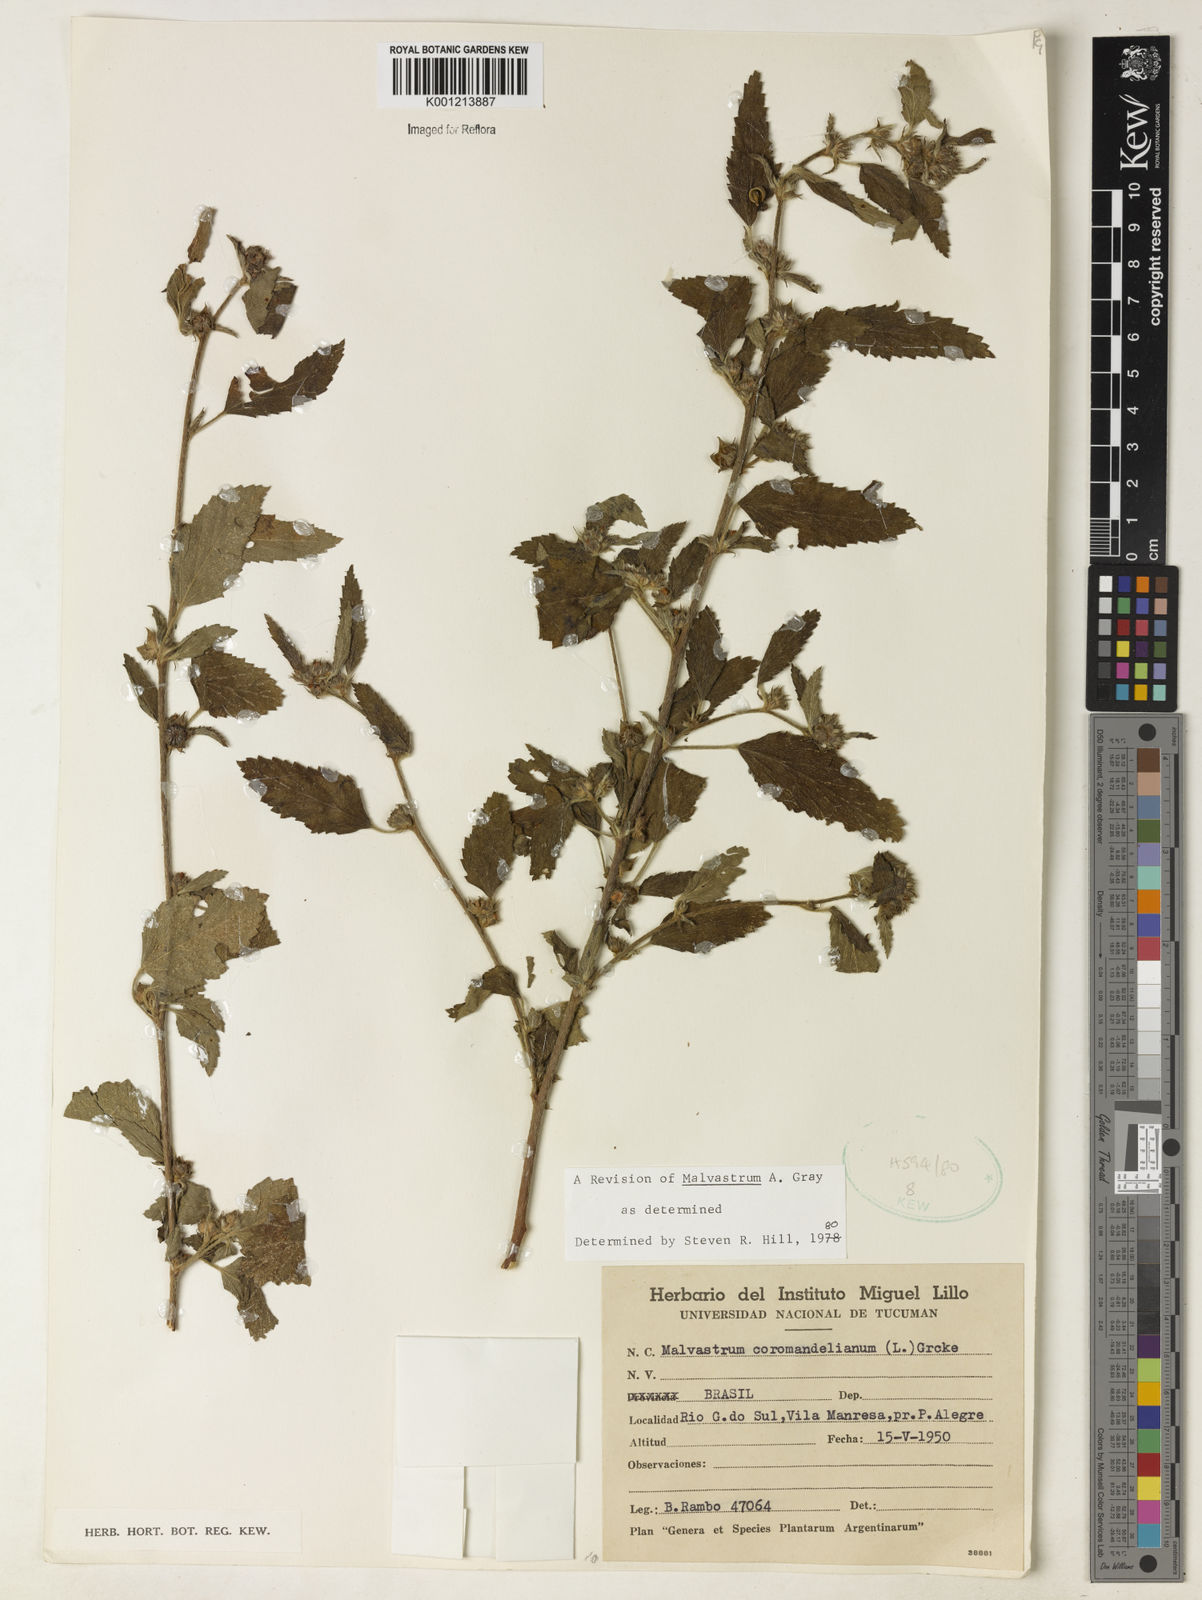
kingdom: Plantae
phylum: Tracheophyta
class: Magnoliopsida
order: Malvales
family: Malvaceae
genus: Malvastrum
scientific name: Malvastrum coromandelianum
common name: Threelobe false mallow
